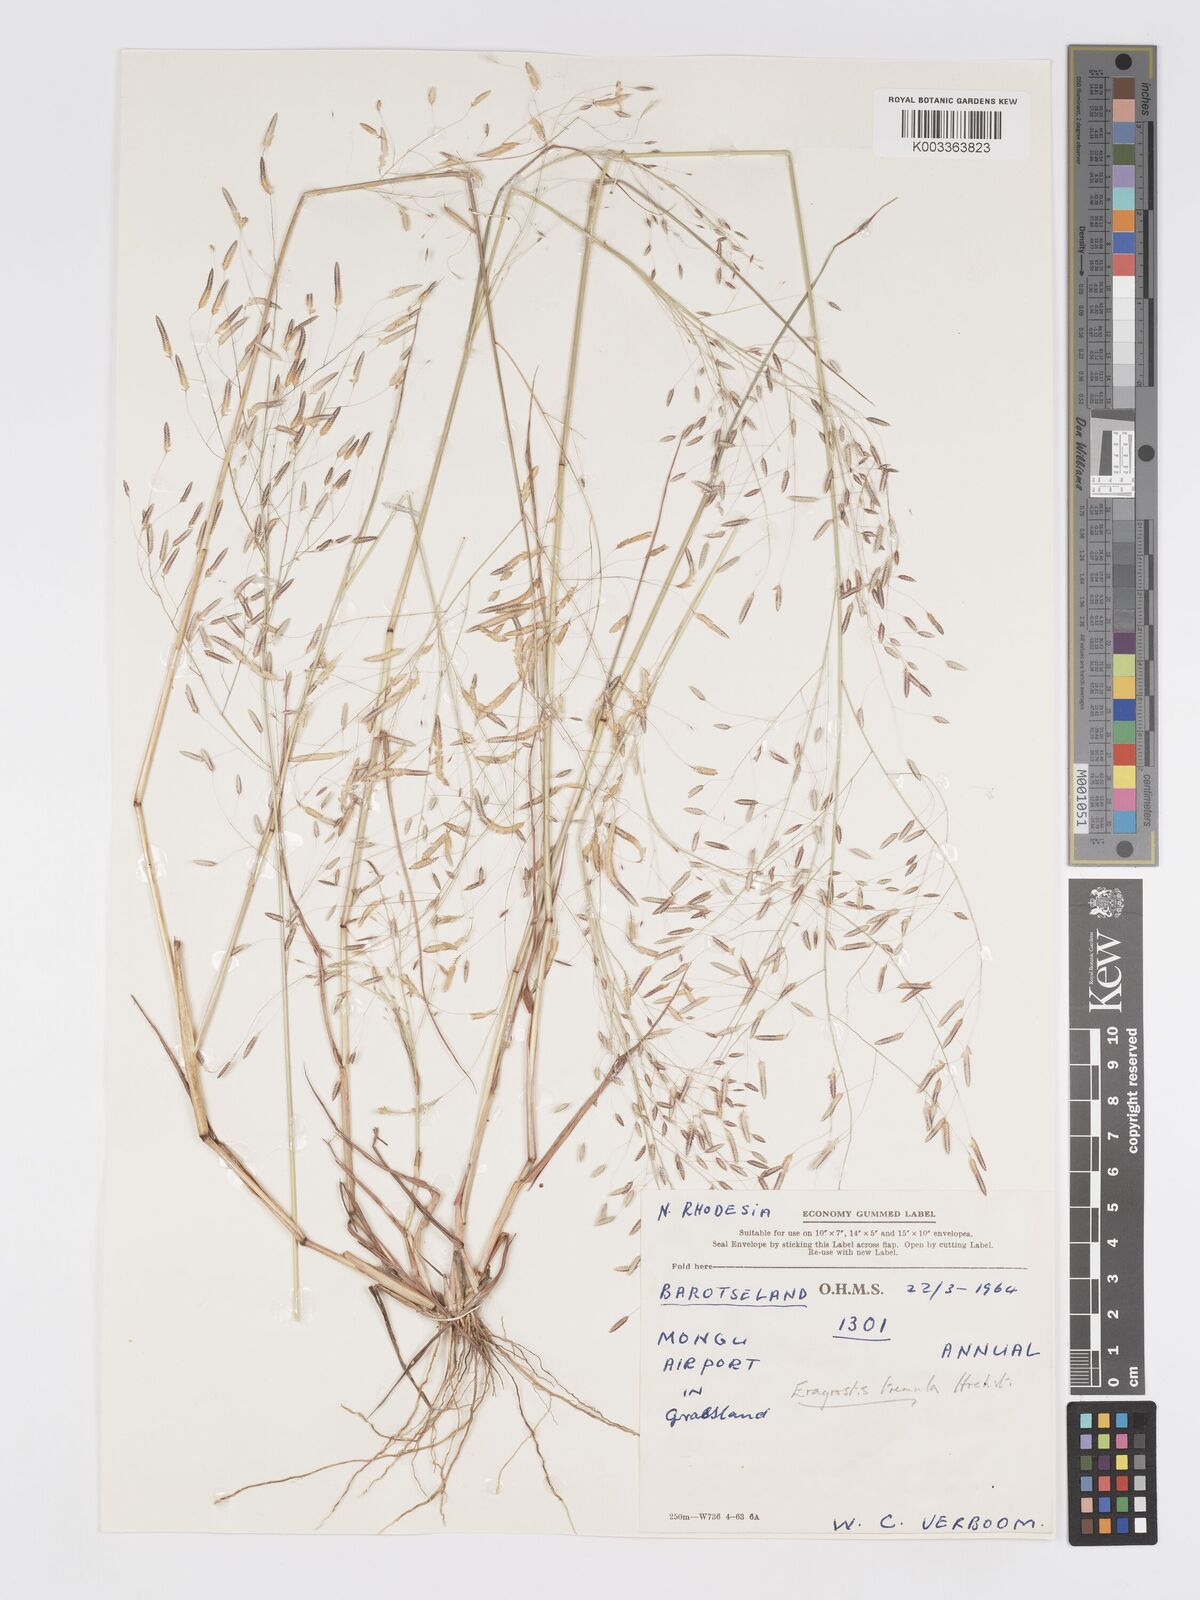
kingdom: Plantae
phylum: Tracheophyta
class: Liliopsida
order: Poales
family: Poaceae
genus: Eragrostis
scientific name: Eragrostis tremula
